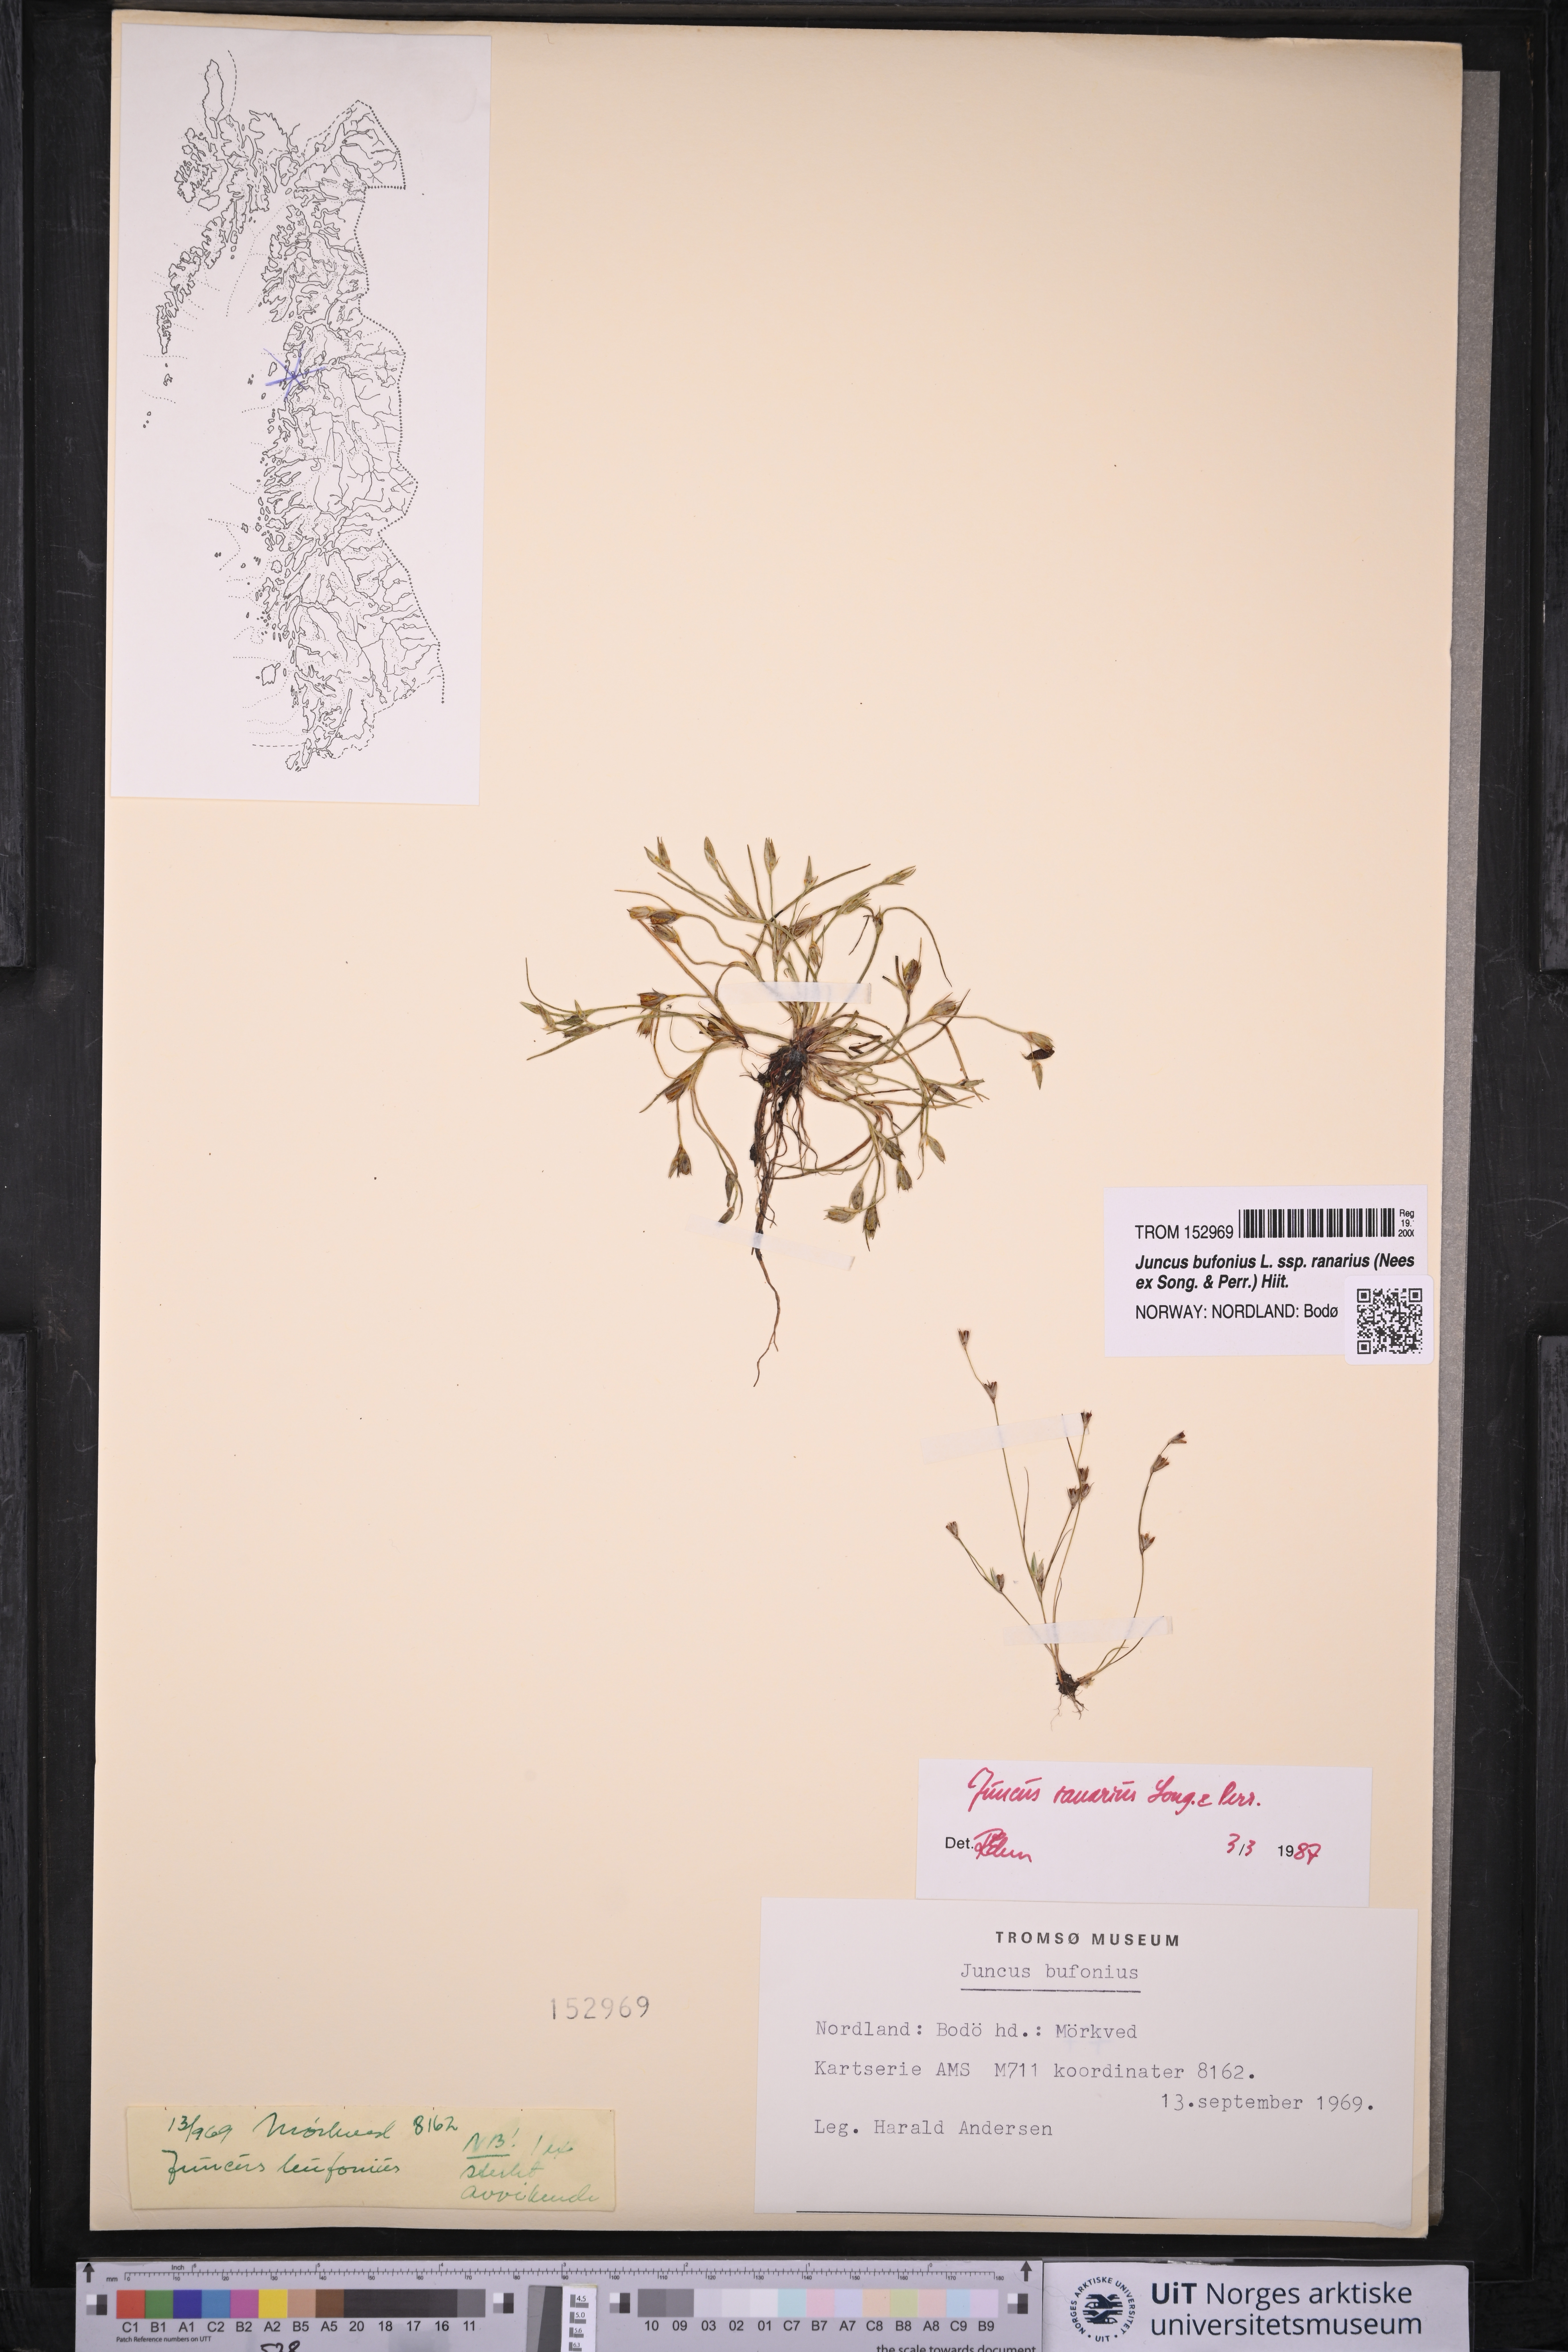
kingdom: Plantae
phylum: Tracheophyta
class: Liliopsida
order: Poales
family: Juncaceae
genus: Juncus
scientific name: Juncus ranarius
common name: Frog rush
